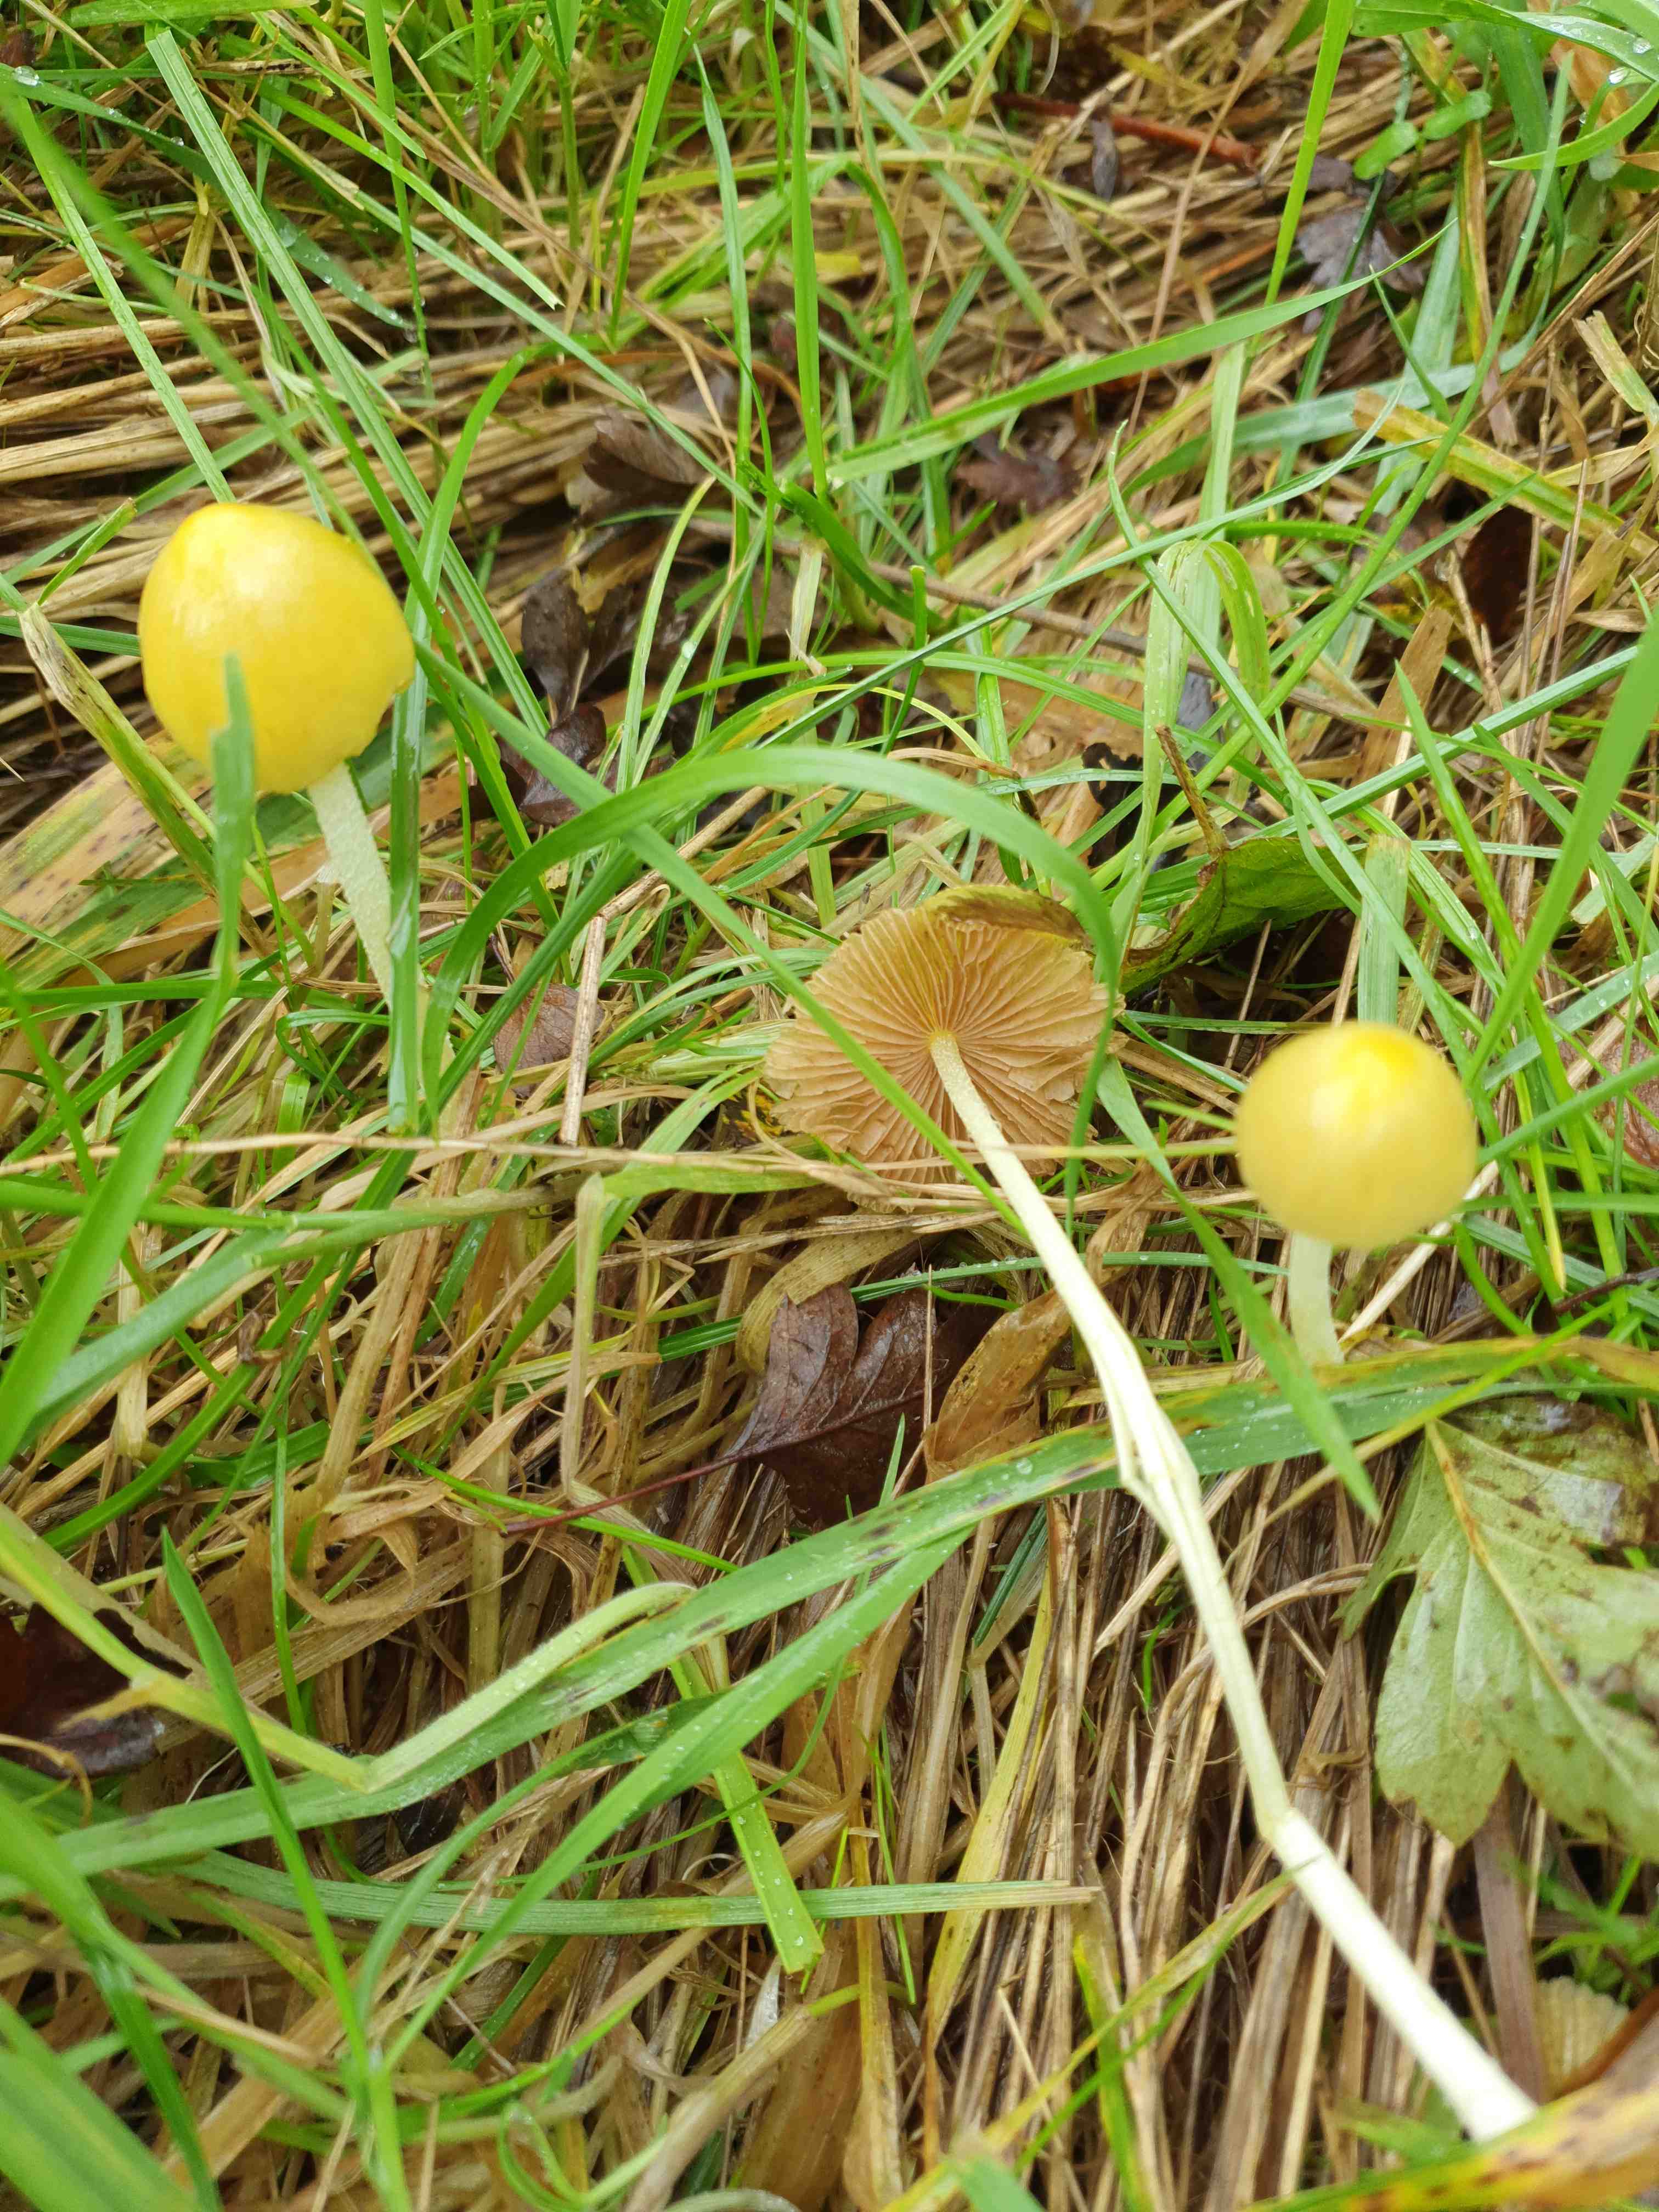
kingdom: Fungi
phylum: Basidiomycota
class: Agaricomycetes
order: Agaricales
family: Bolbitiaceae
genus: Bolbitius
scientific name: Bolbitius titubans
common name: almindelig gulhat
